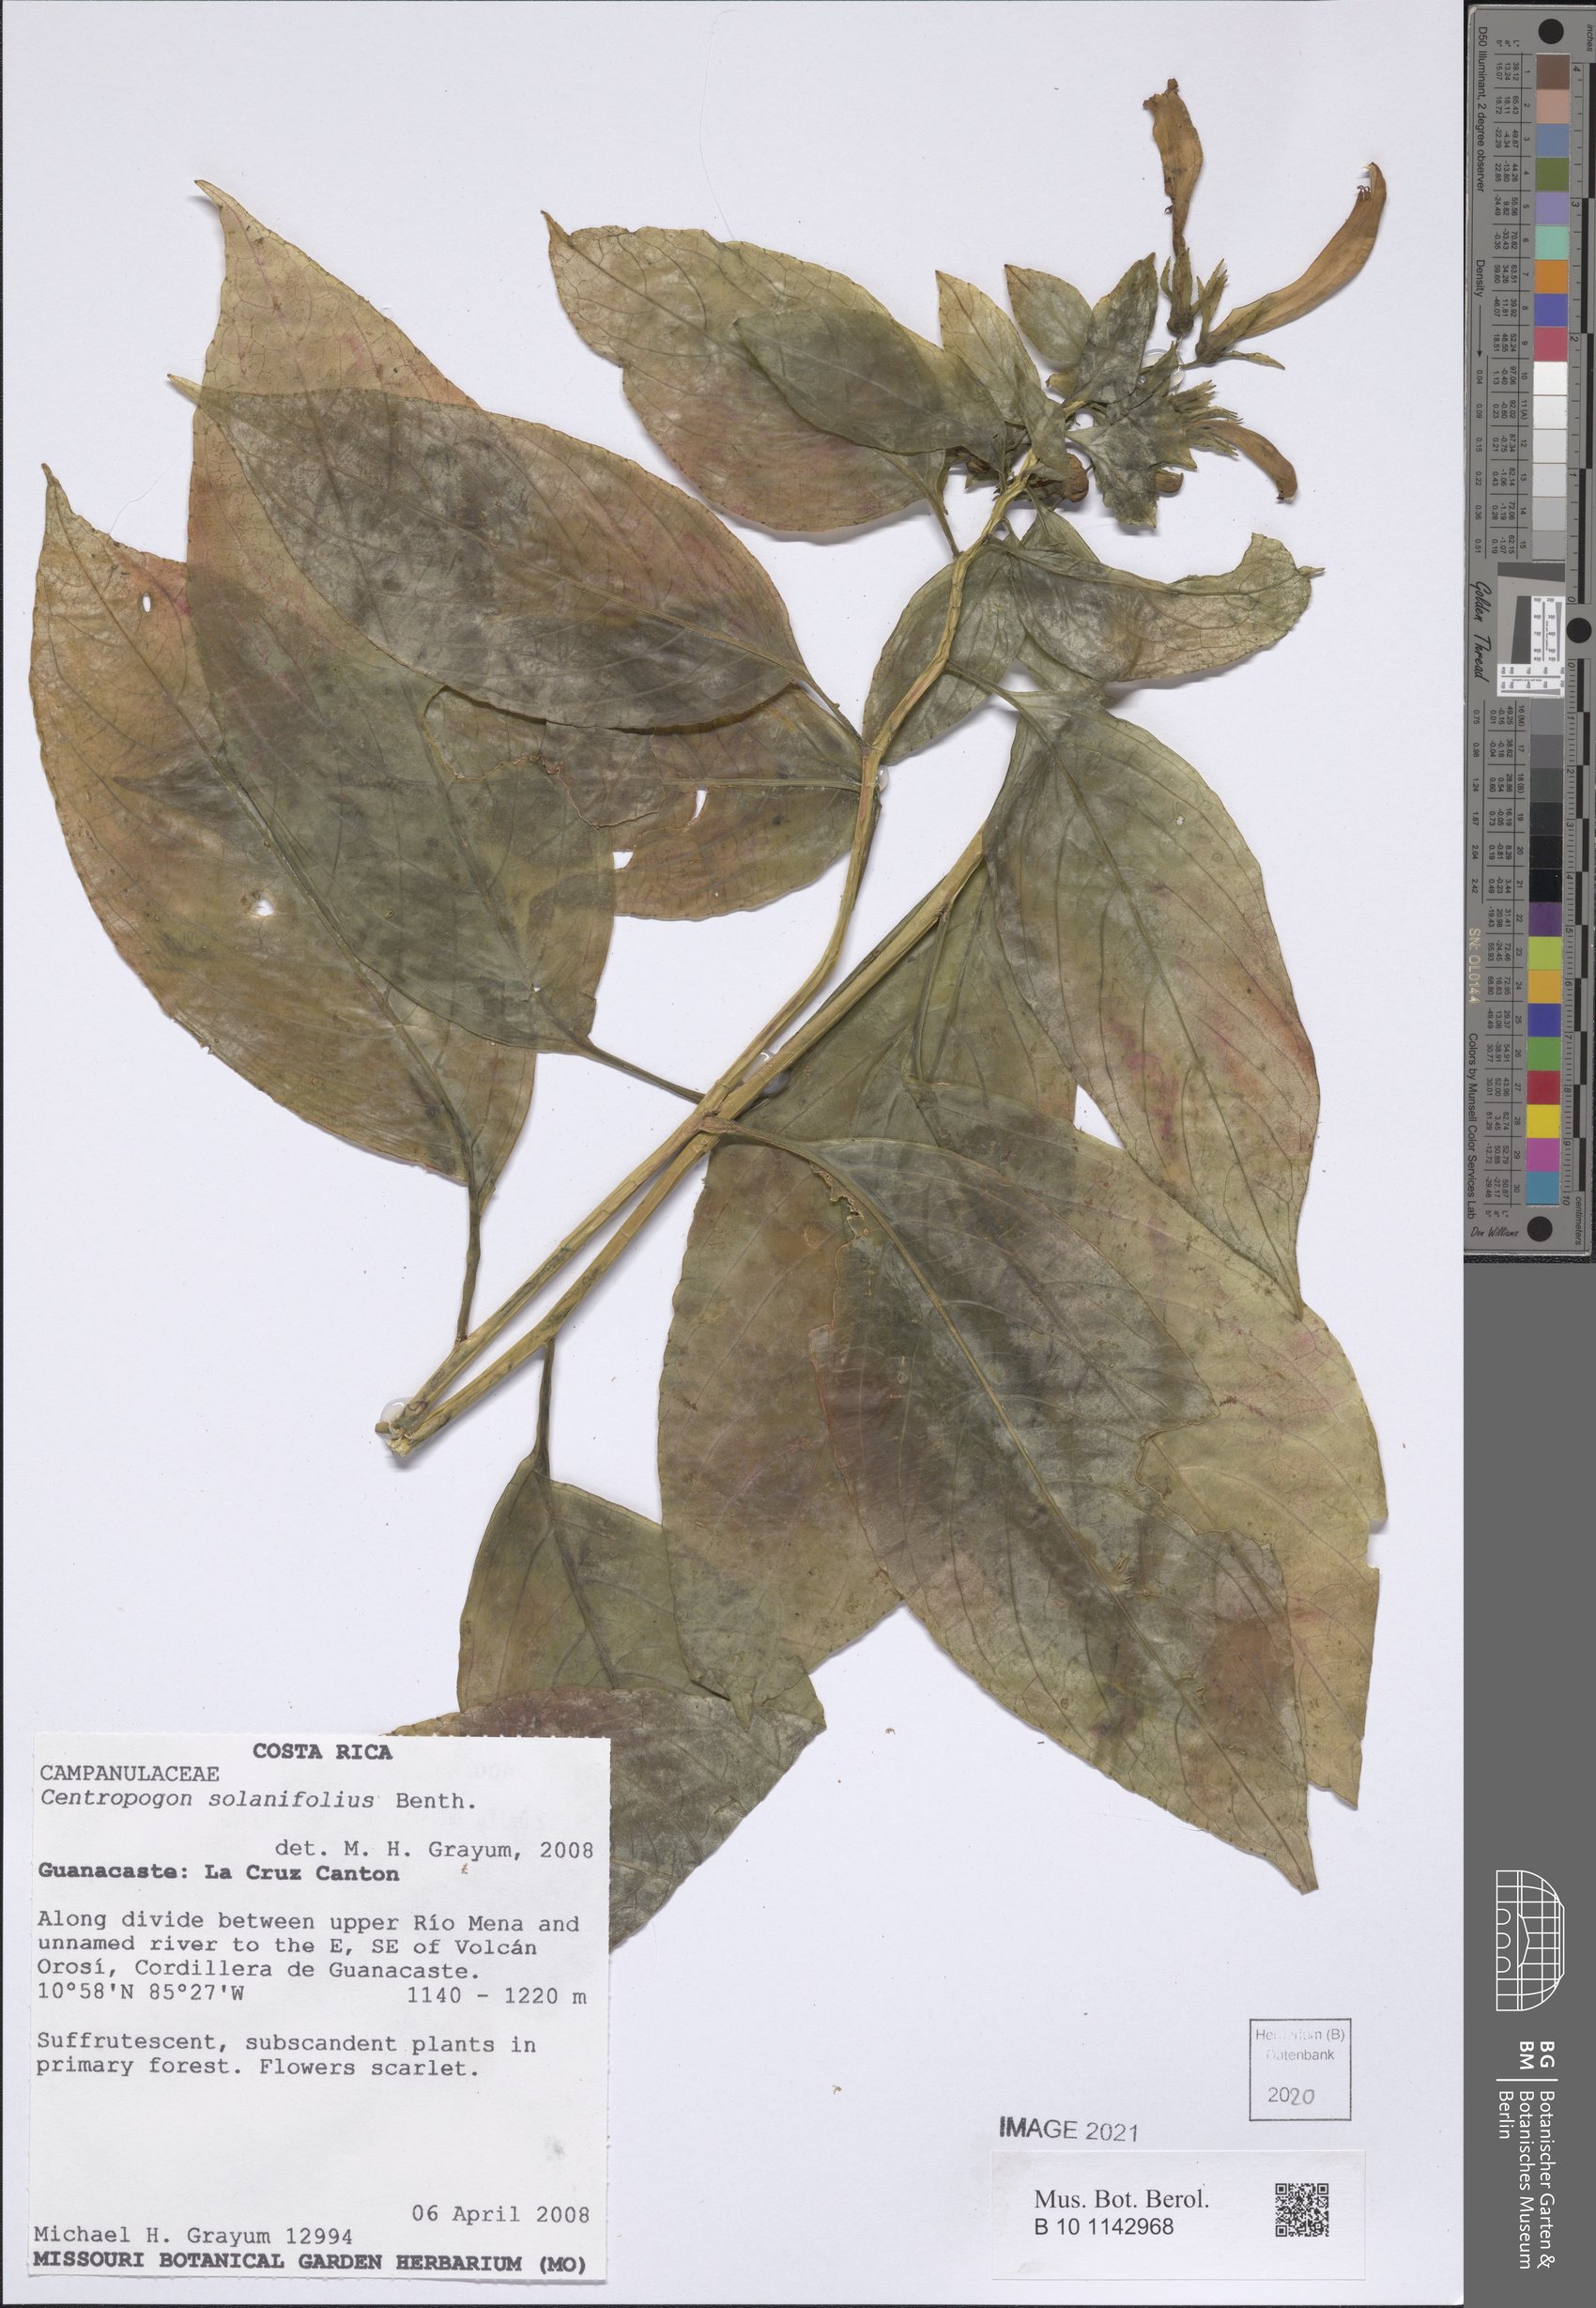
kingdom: Plantae
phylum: Tracheophyta
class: Magnoliopsida
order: Asterales
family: Campanulaceae
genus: Centropogon
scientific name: Centropogon solanifolius
